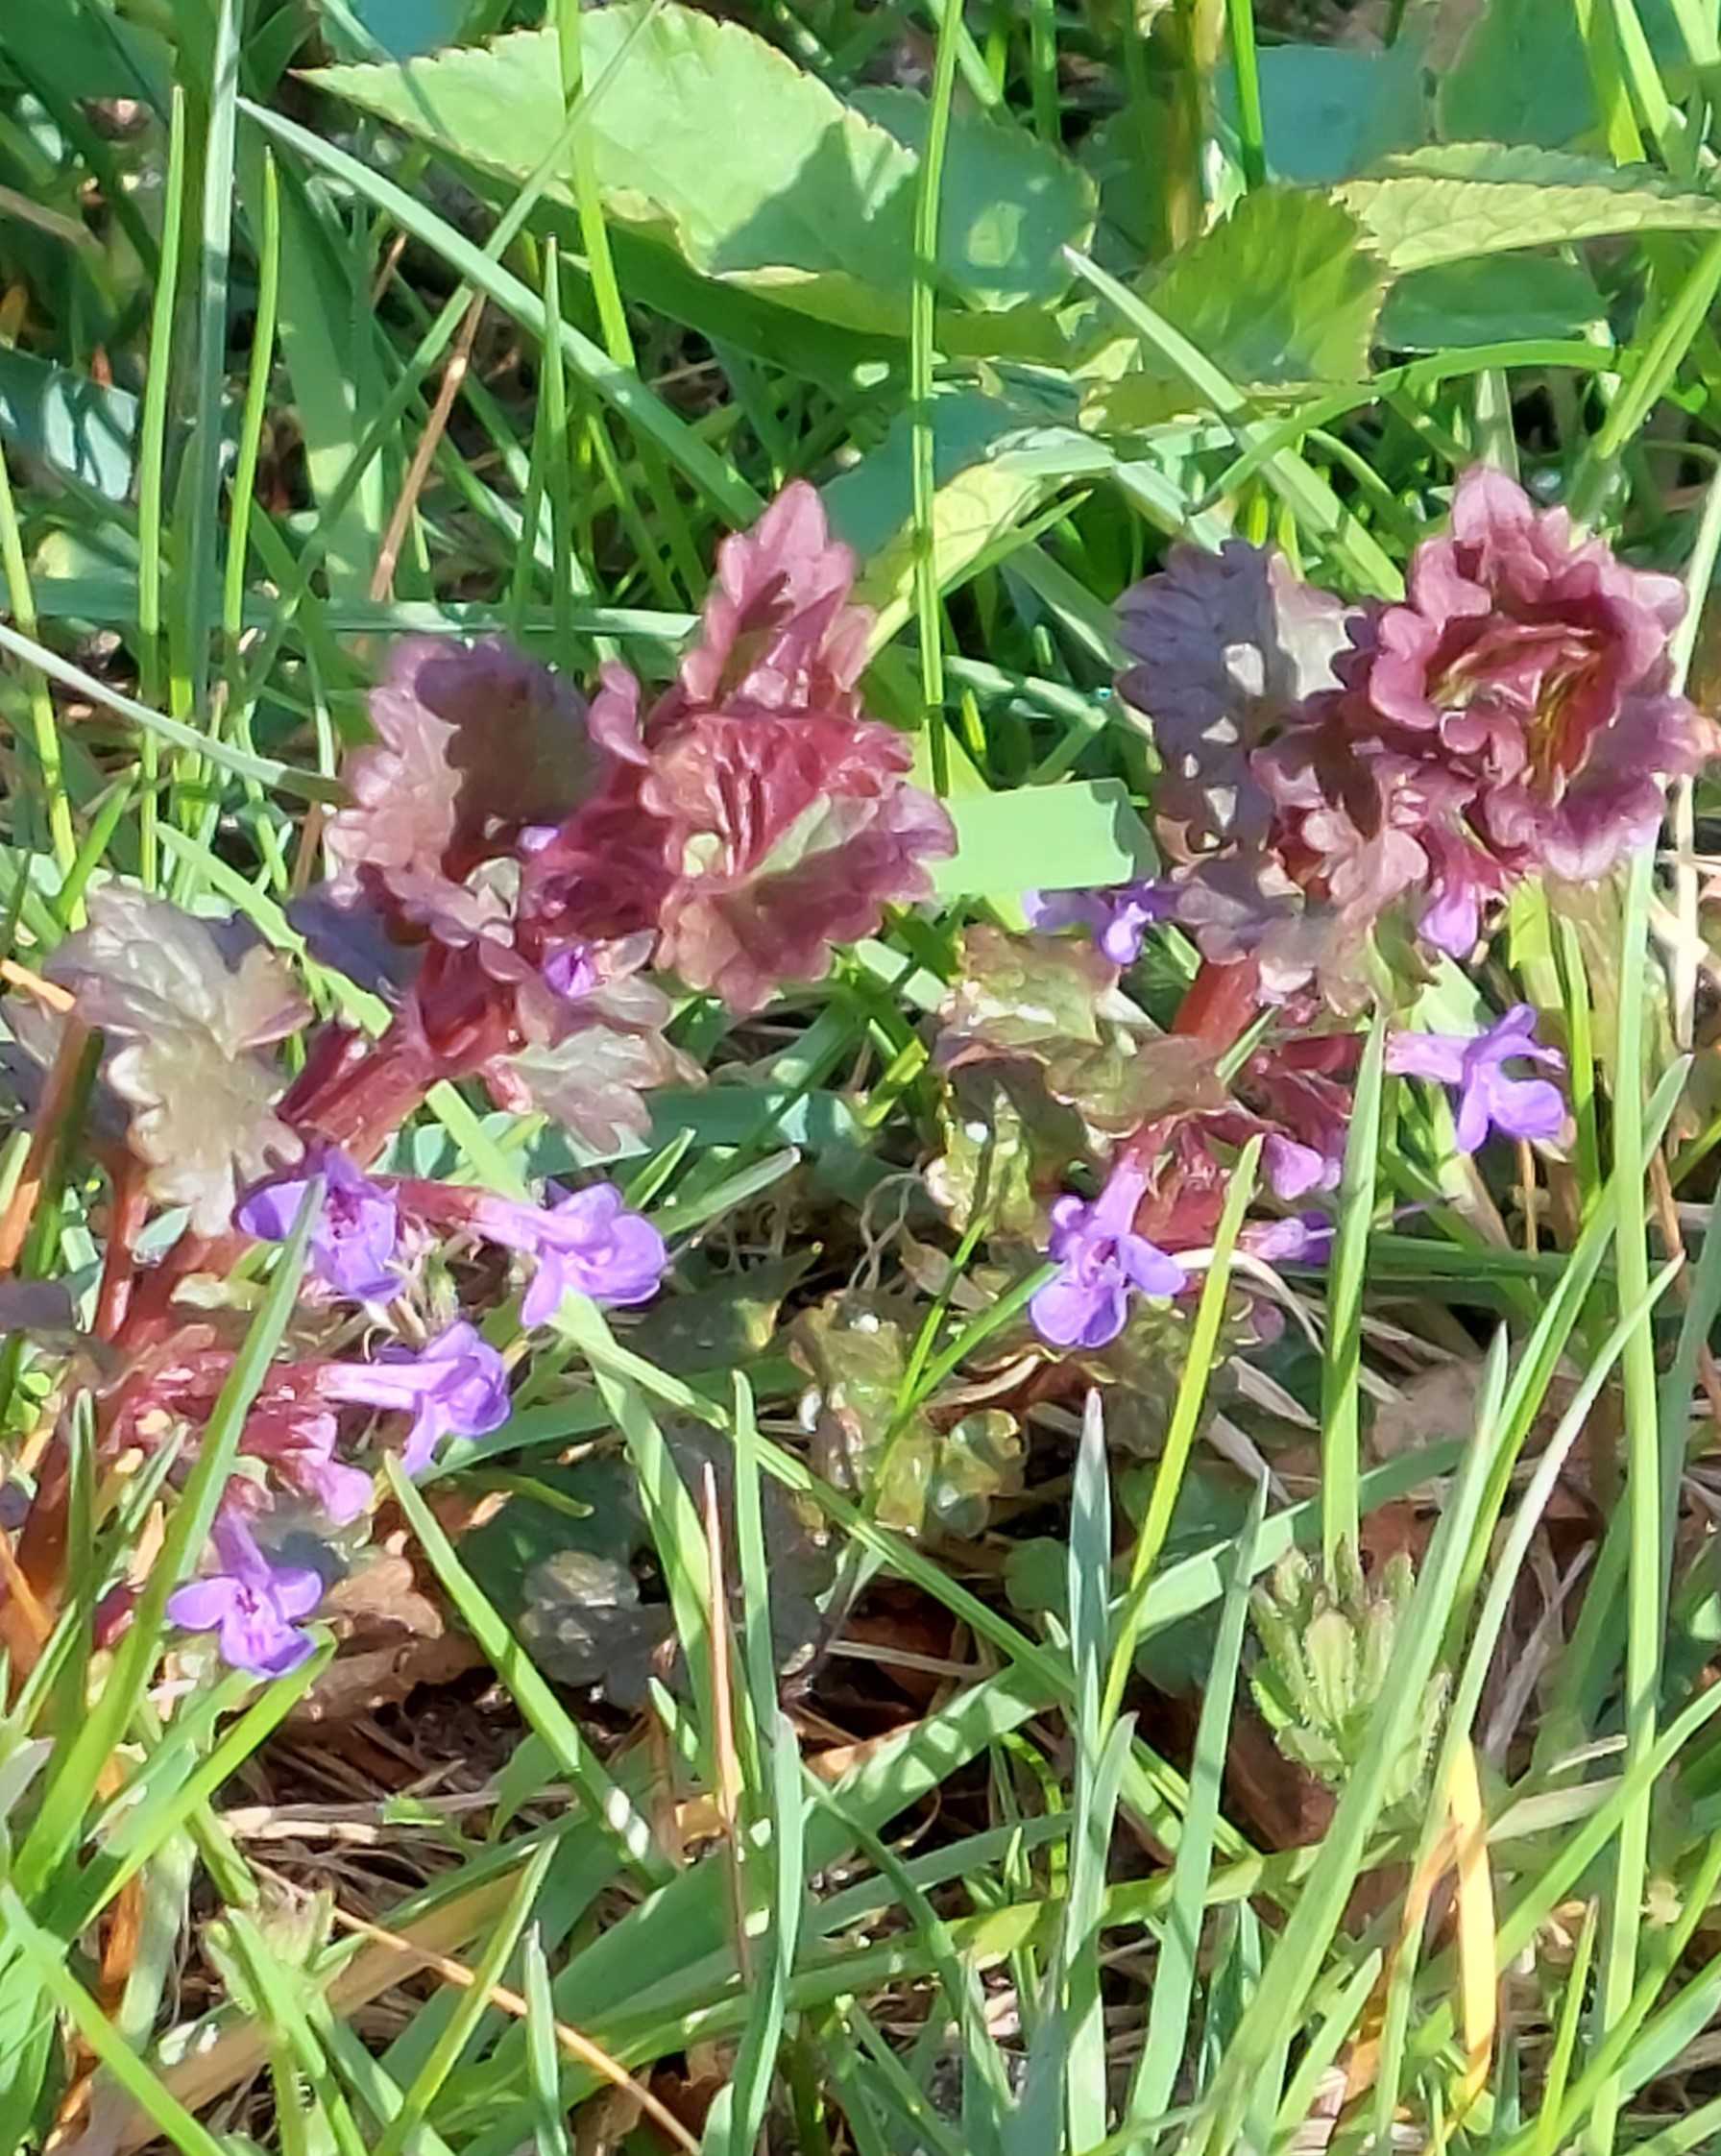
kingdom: Plantae
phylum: Tracheophyta
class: Magnoliopsida
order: Lamiales
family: Lamiaceae
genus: Glechoma
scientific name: Glechoma hederacea
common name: Korsknap
